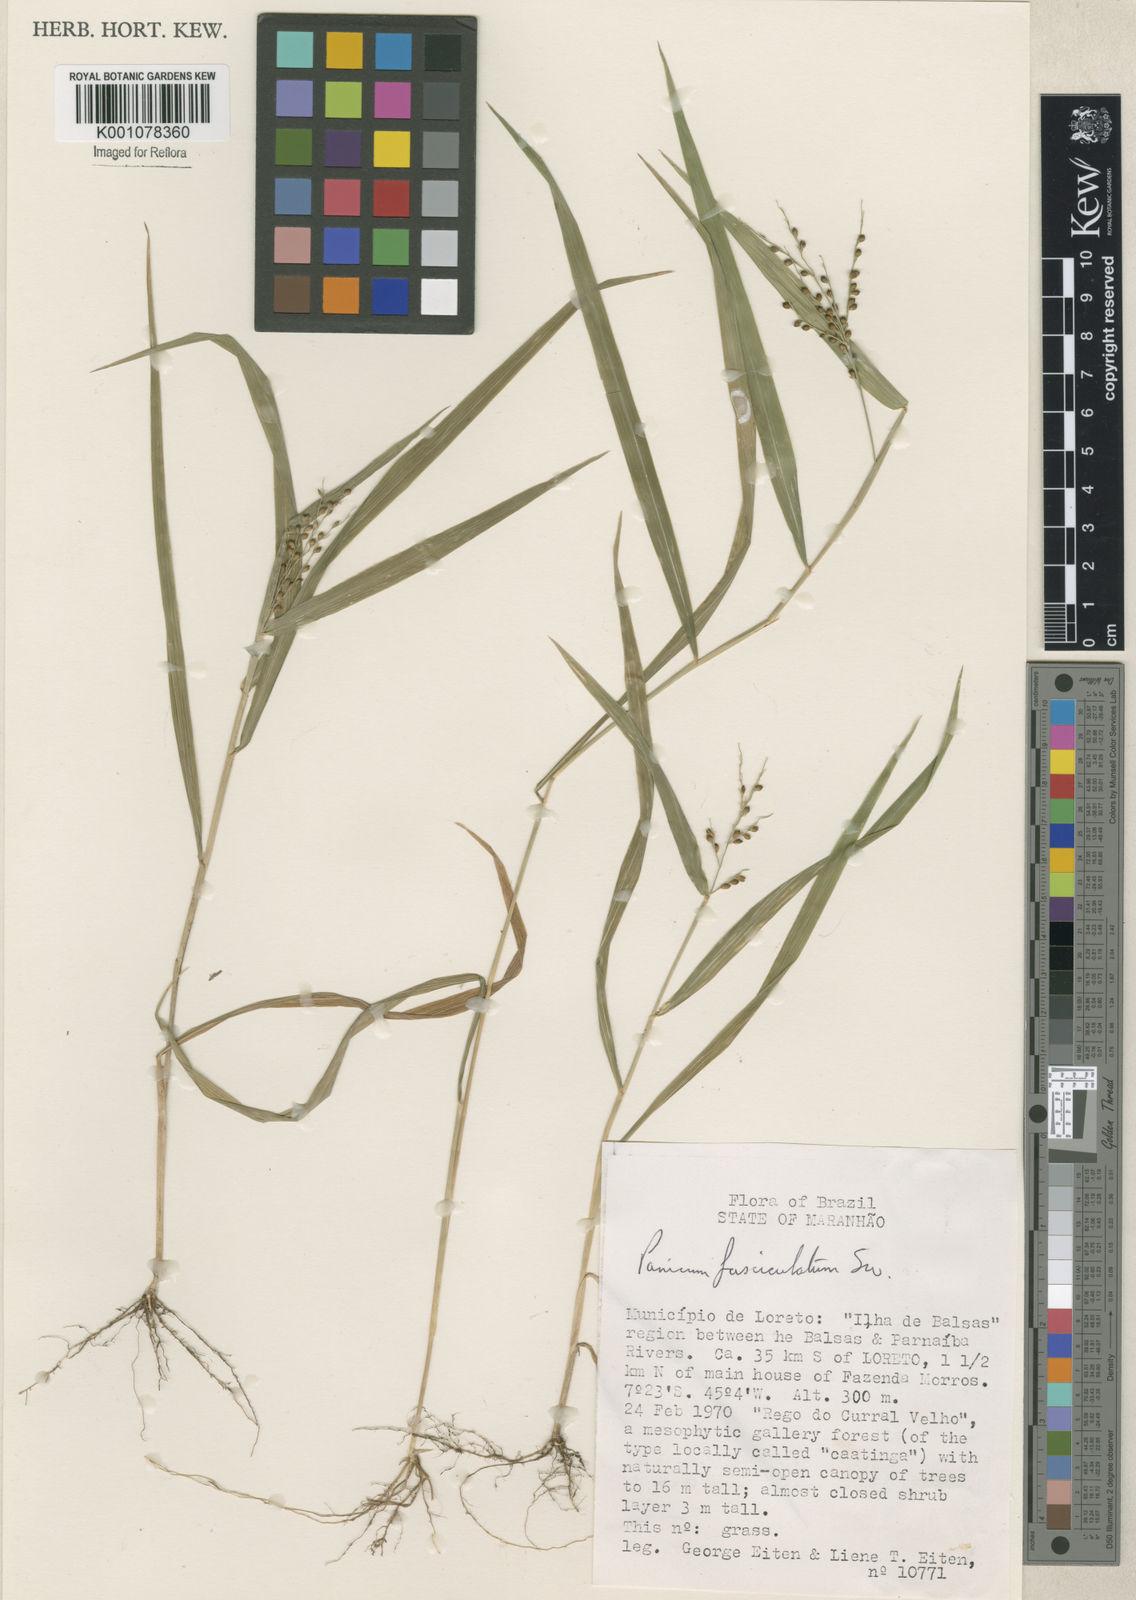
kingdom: Plantae
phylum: Tracheophyta
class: Liliopsida
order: Poales
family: Poaceae
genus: Urochloa
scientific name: Urochloa fusca
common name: Browntop signal grass
